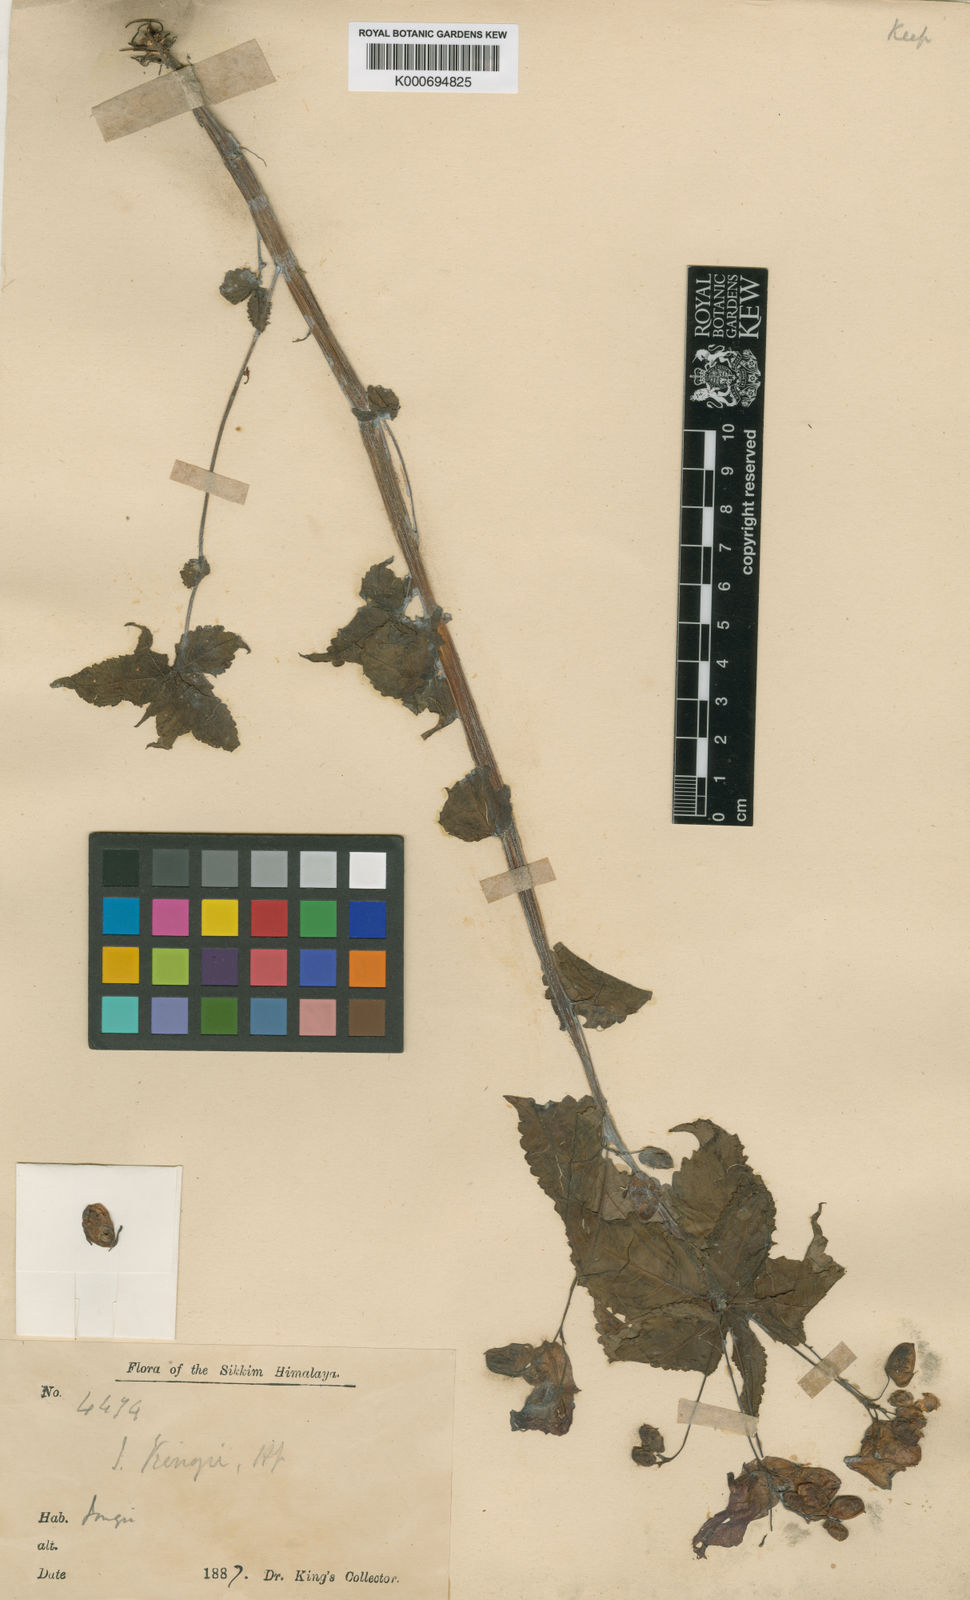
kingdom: Plantae
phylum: Tracheophyta
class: Magnoliopsida
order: Ericales
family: Balsaminaceae
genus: Impatiens
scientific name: Impatiens kingii
